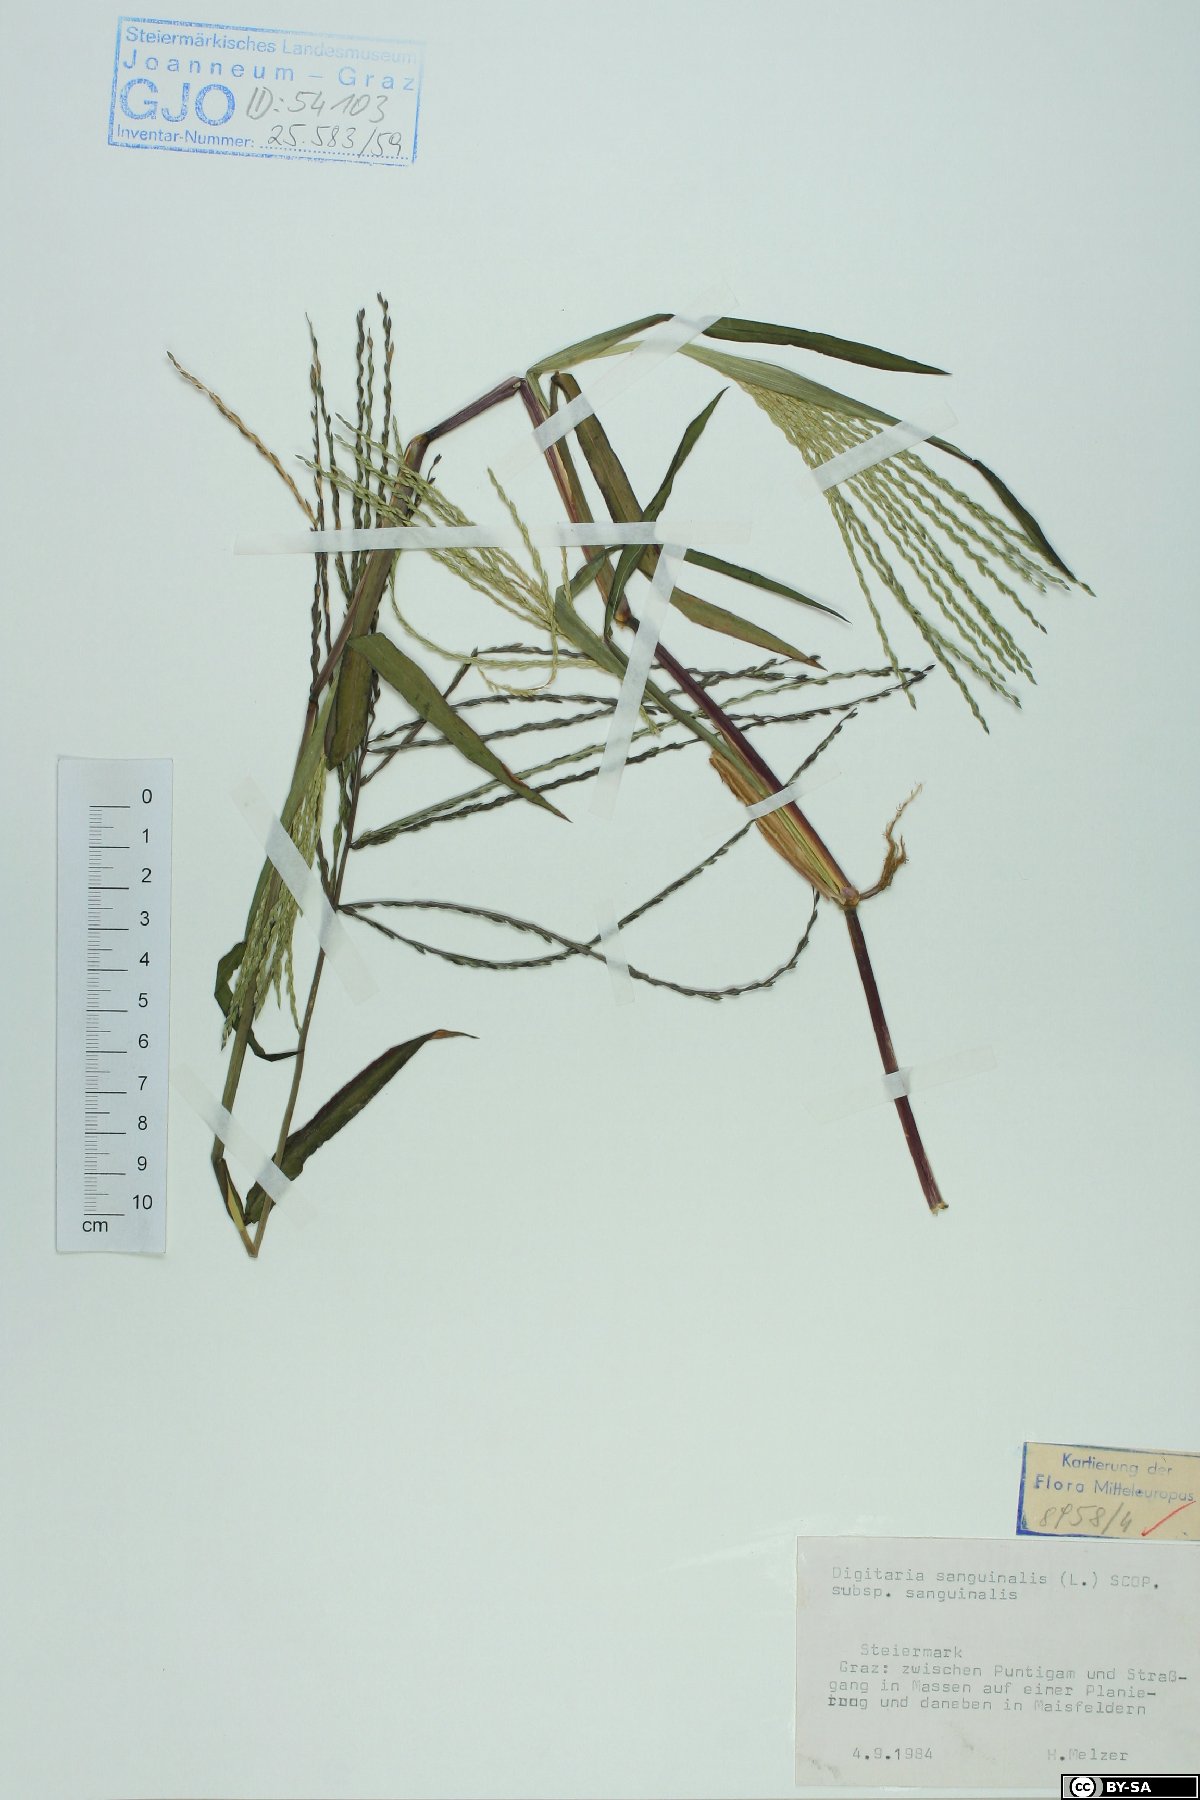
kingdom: Plantae
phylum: Tracheophyta
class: Liliopsida
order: Poales
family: Poaceae
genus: Digitaria
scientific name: Digitaria sanguinalis
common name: Hairy crabgrass
